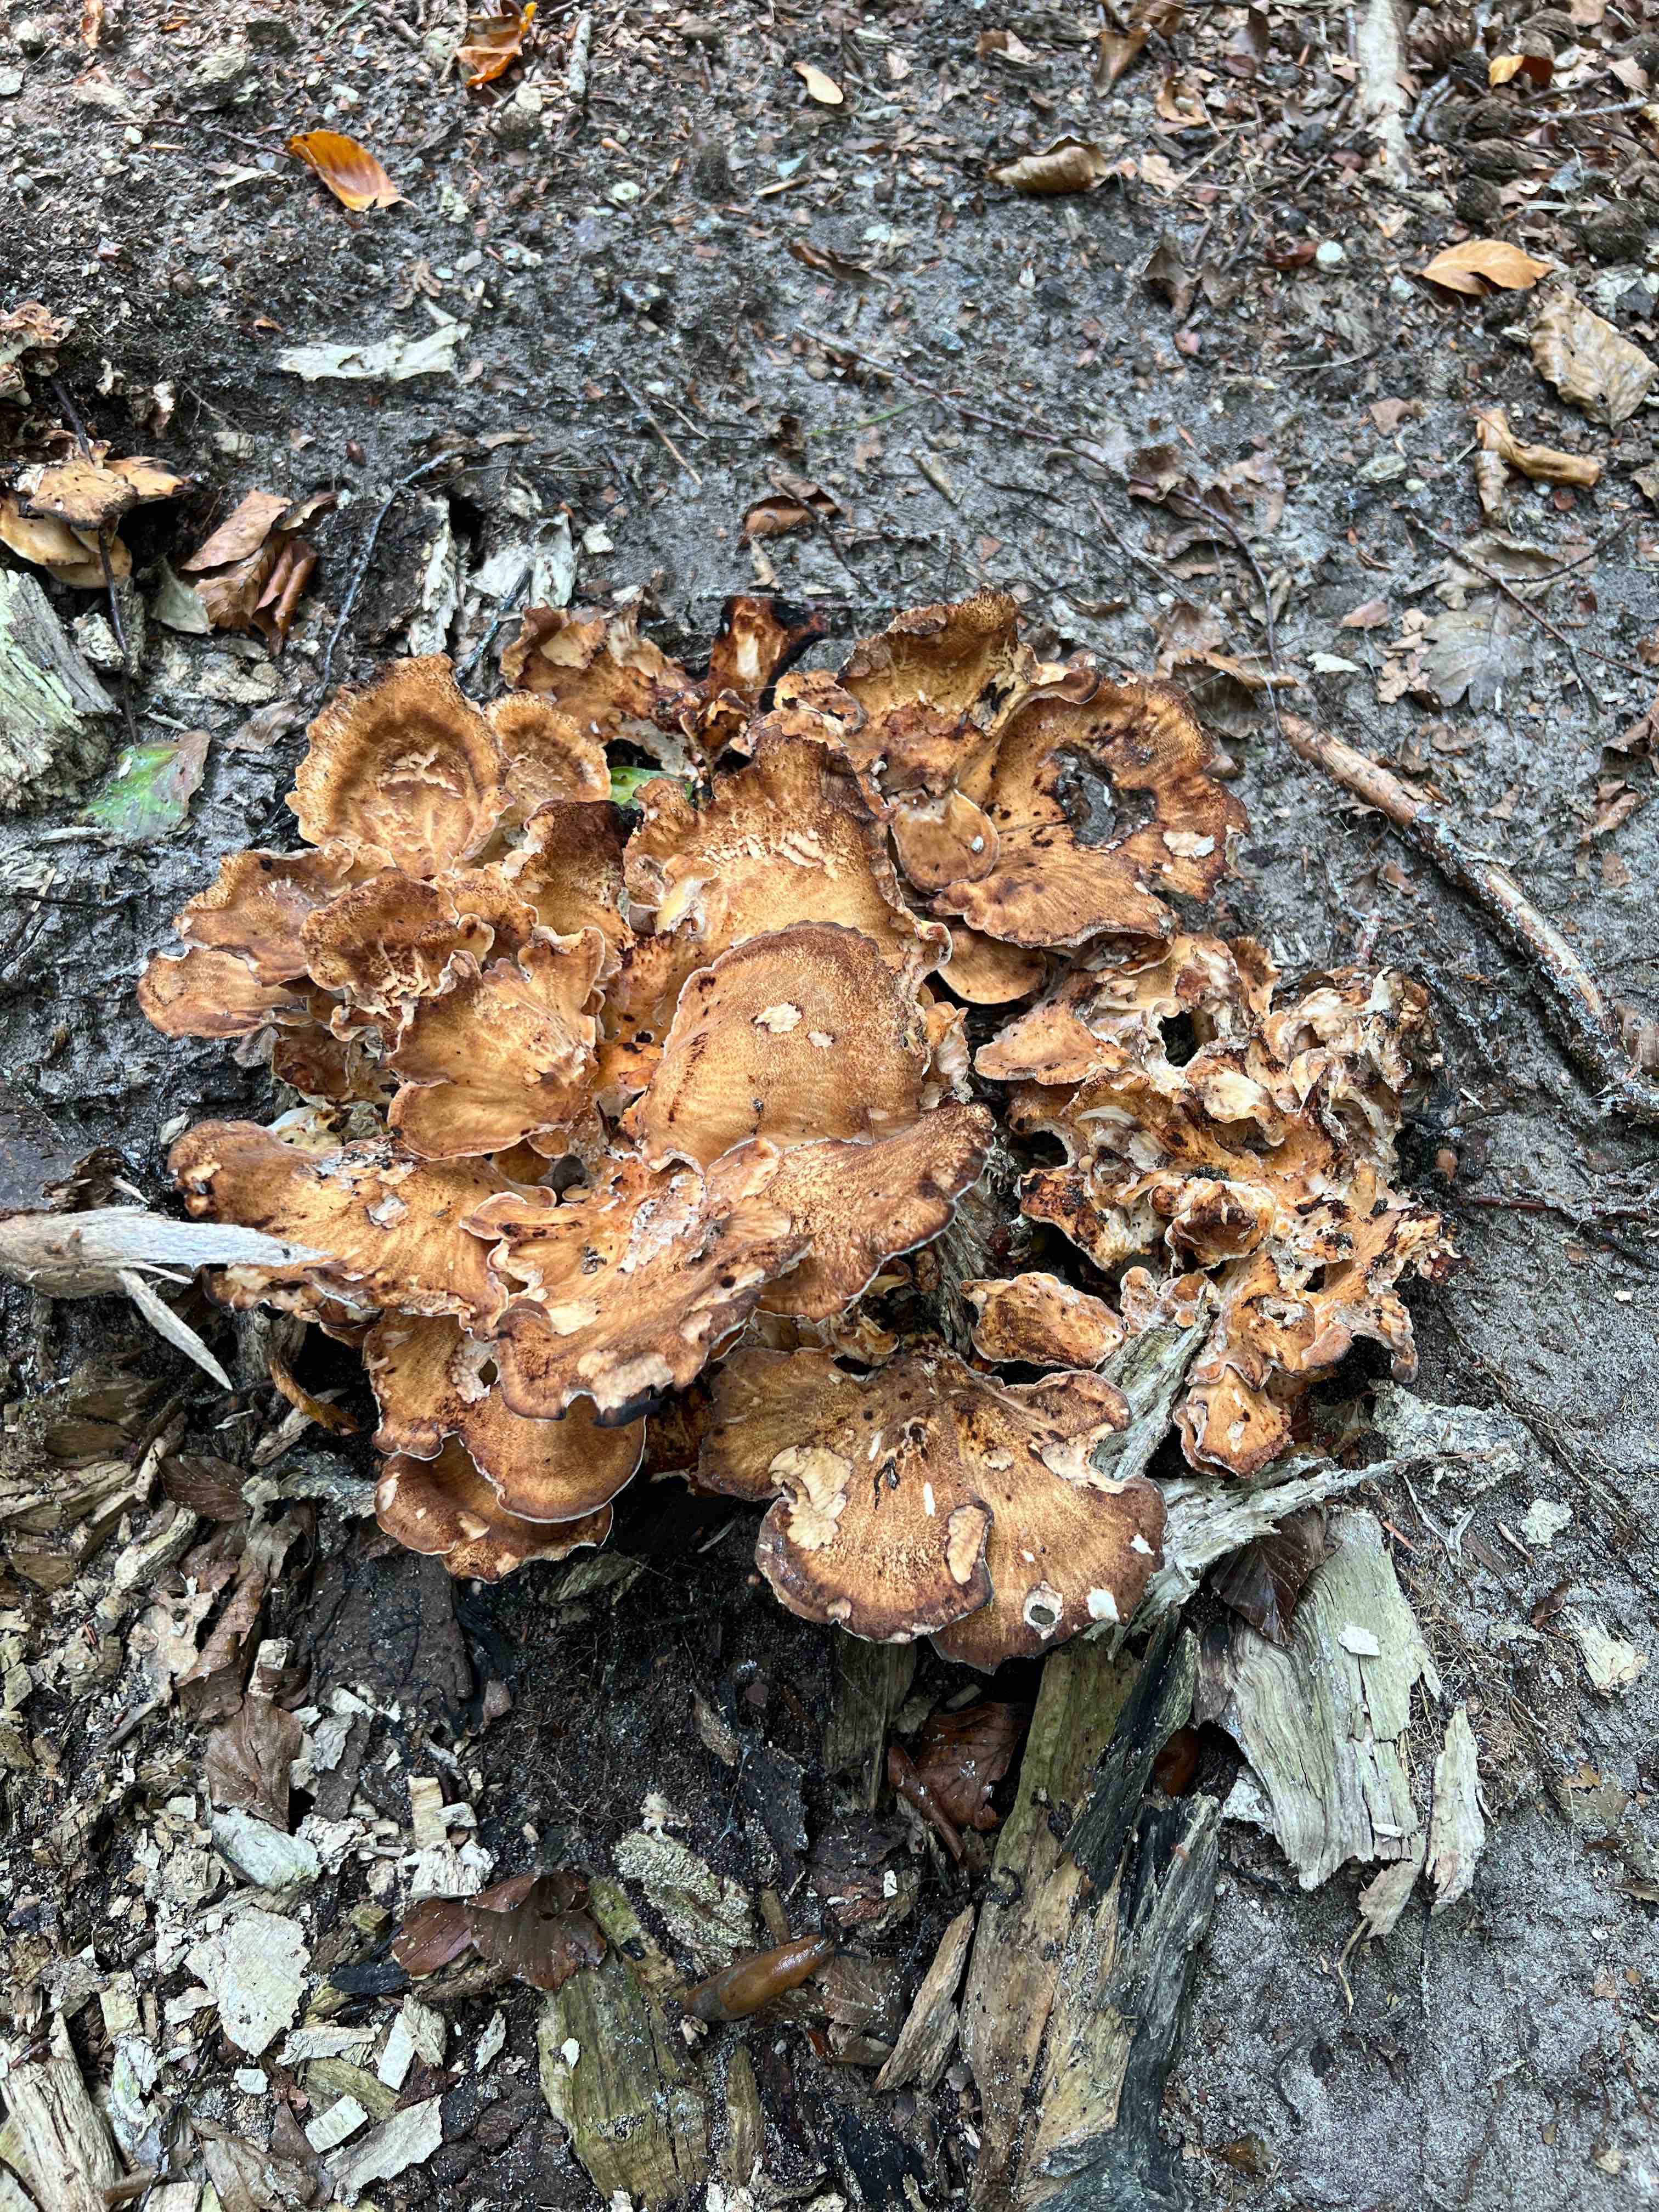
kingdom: Fungi
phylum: Basidiomycota
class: Agaricomycetes
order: Polyporales
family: Meripilaceae
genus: Meripilus
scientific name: Meripilus giganteus
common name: kæmpeporesvamp
